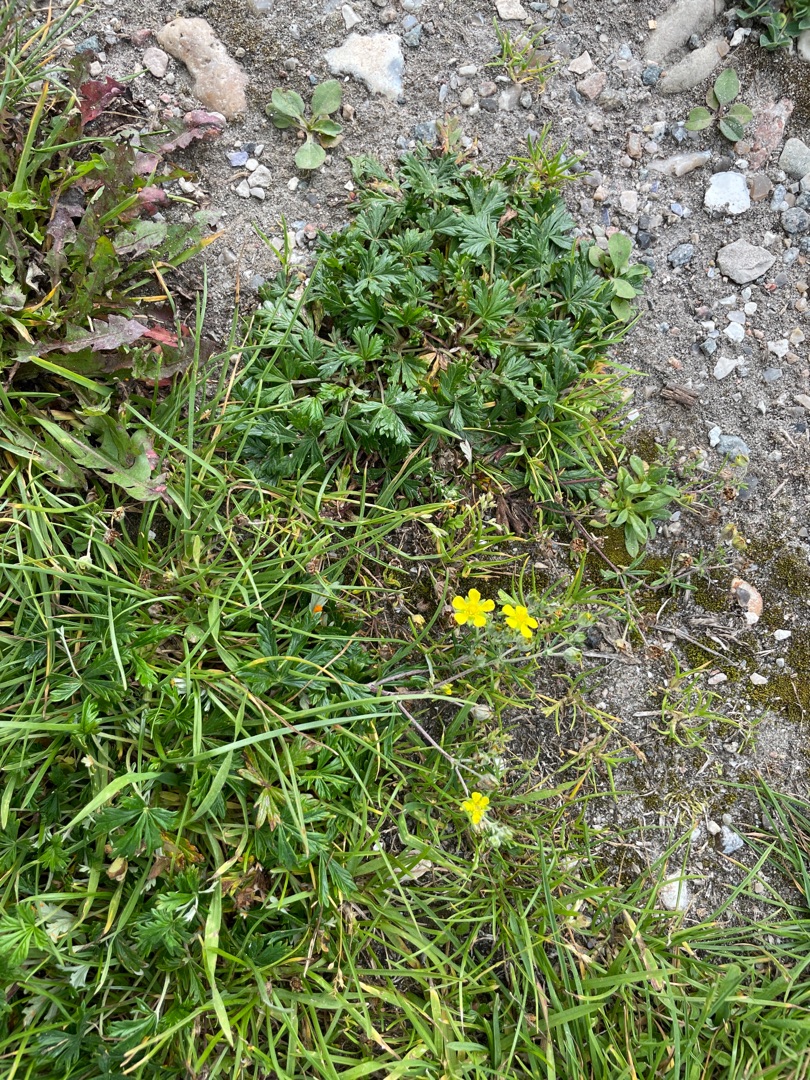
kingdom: Plantae
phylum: Tracheophyta
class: Magnoliopsida
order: Rosales
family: Rosaceae
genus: Potentilla
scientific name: Potentilla argentea
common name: Sølv-potentil
